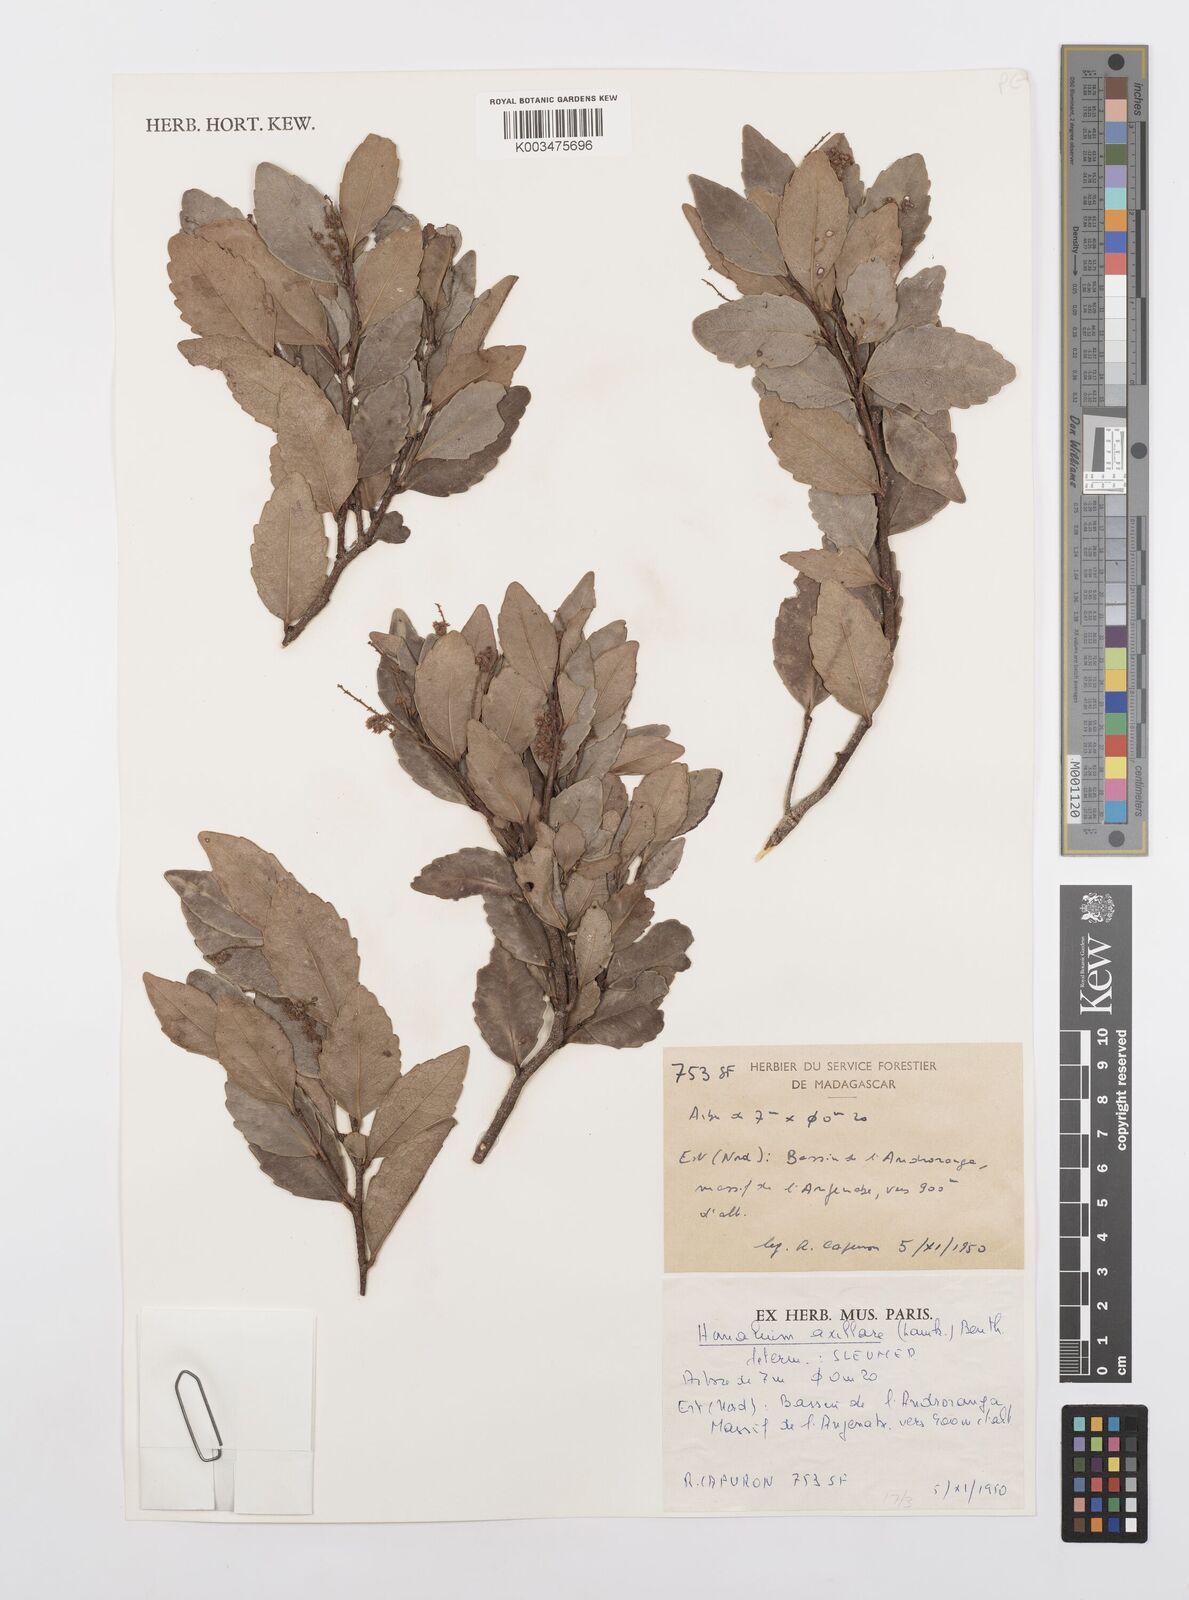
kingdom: Plantae
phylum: Tracheophyta
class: Magnoliopsida
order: Malpighiales
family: Salicaceae
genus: Homalium
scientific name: Homalium axillare
